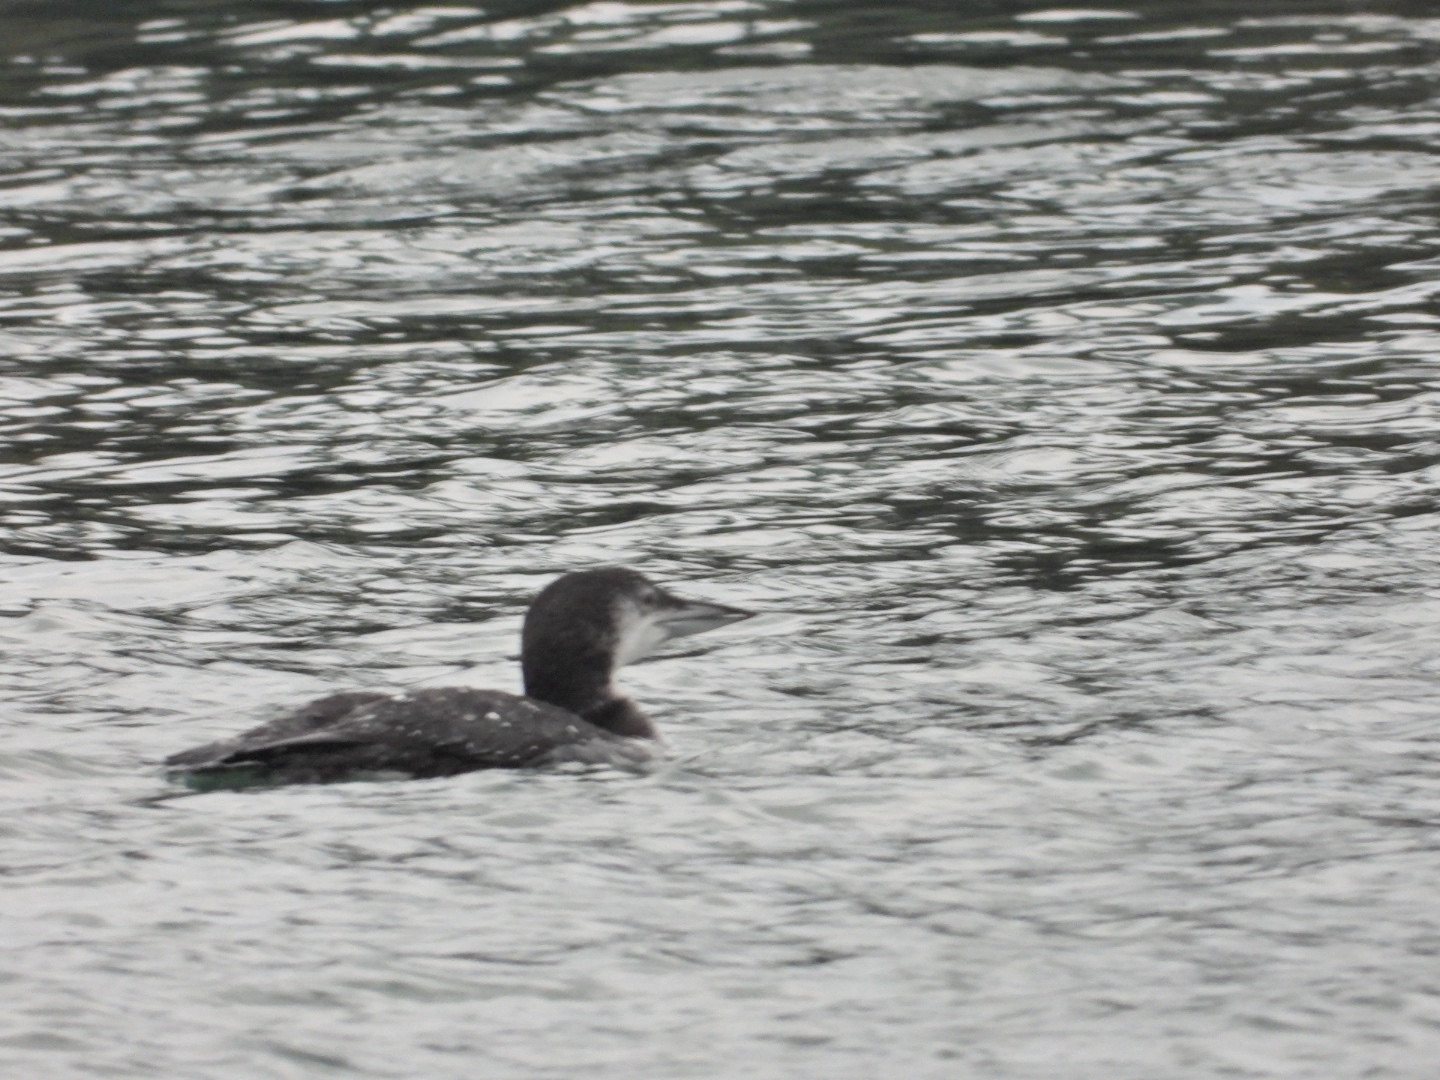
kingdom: Animalia
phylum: Chordata
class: Aves
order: Gaviiformes
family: Gaviidae
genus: Gavia
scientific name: Gavia immer
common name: Islom
